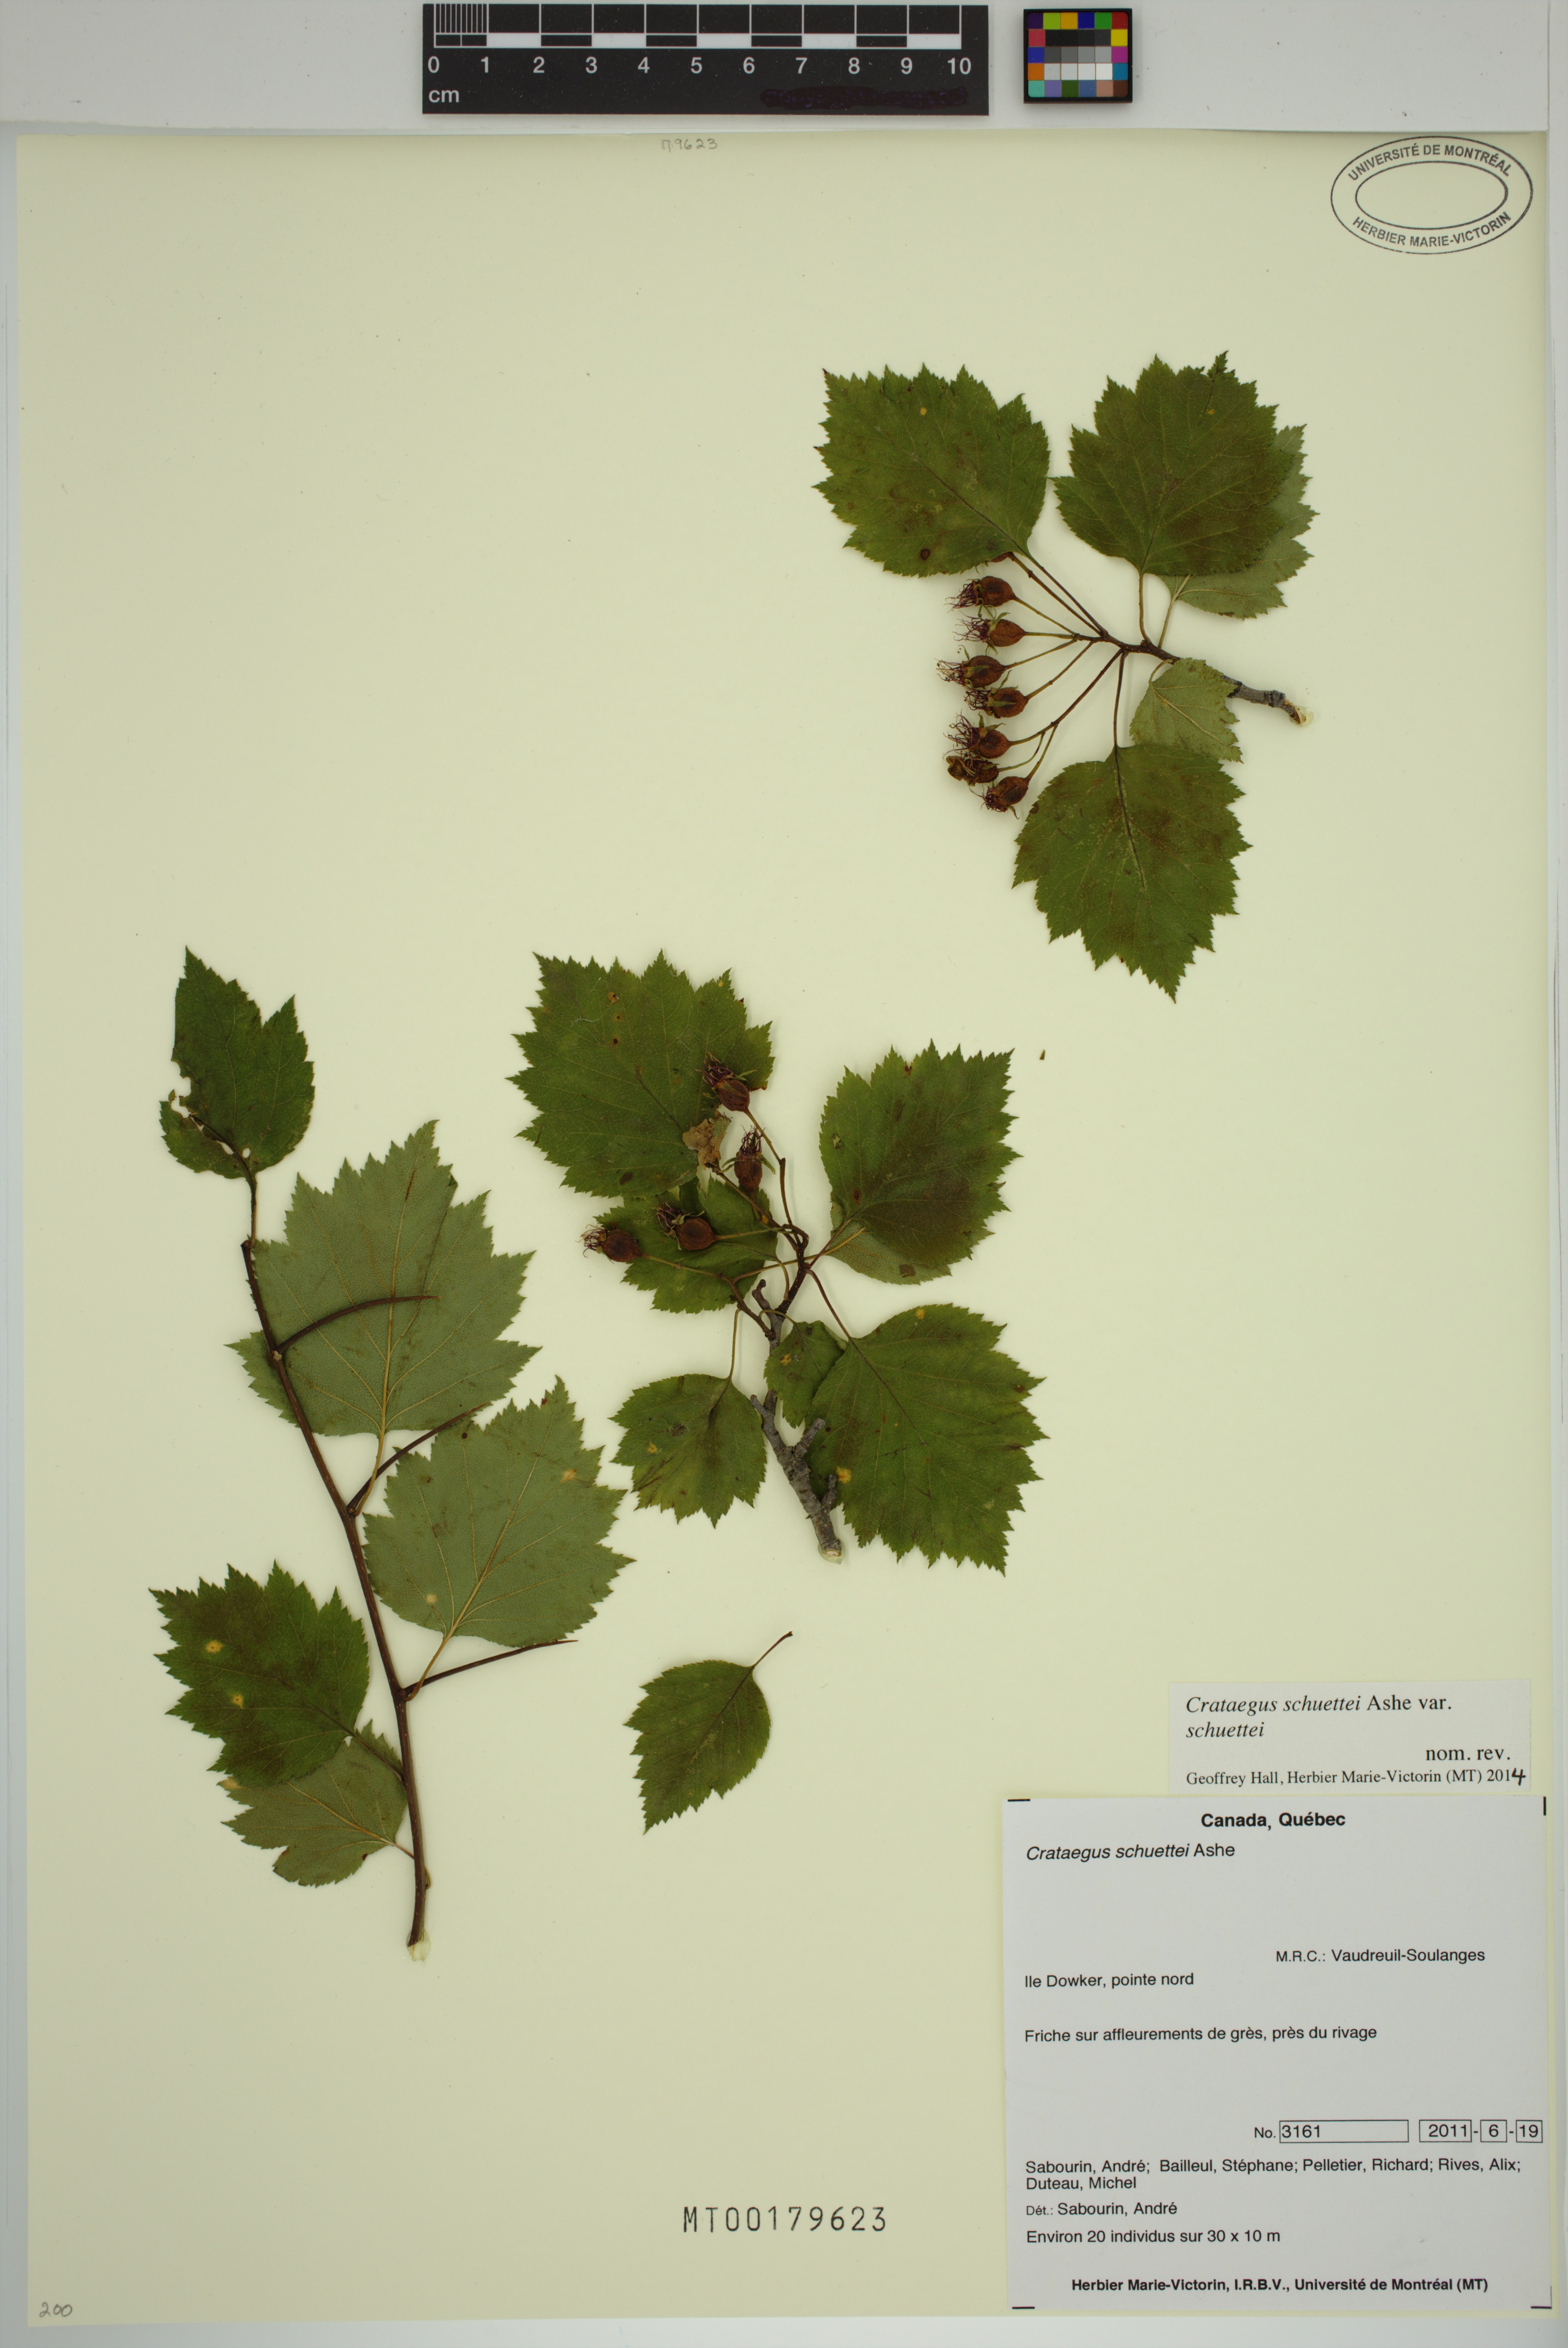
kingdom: Plantae
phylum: Tracheophyta
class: Magnoliopsida
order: Rosales
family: Rosaceae
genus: Crataegus
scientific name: Crataegus schuettei
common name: Schuette's hawthorn
